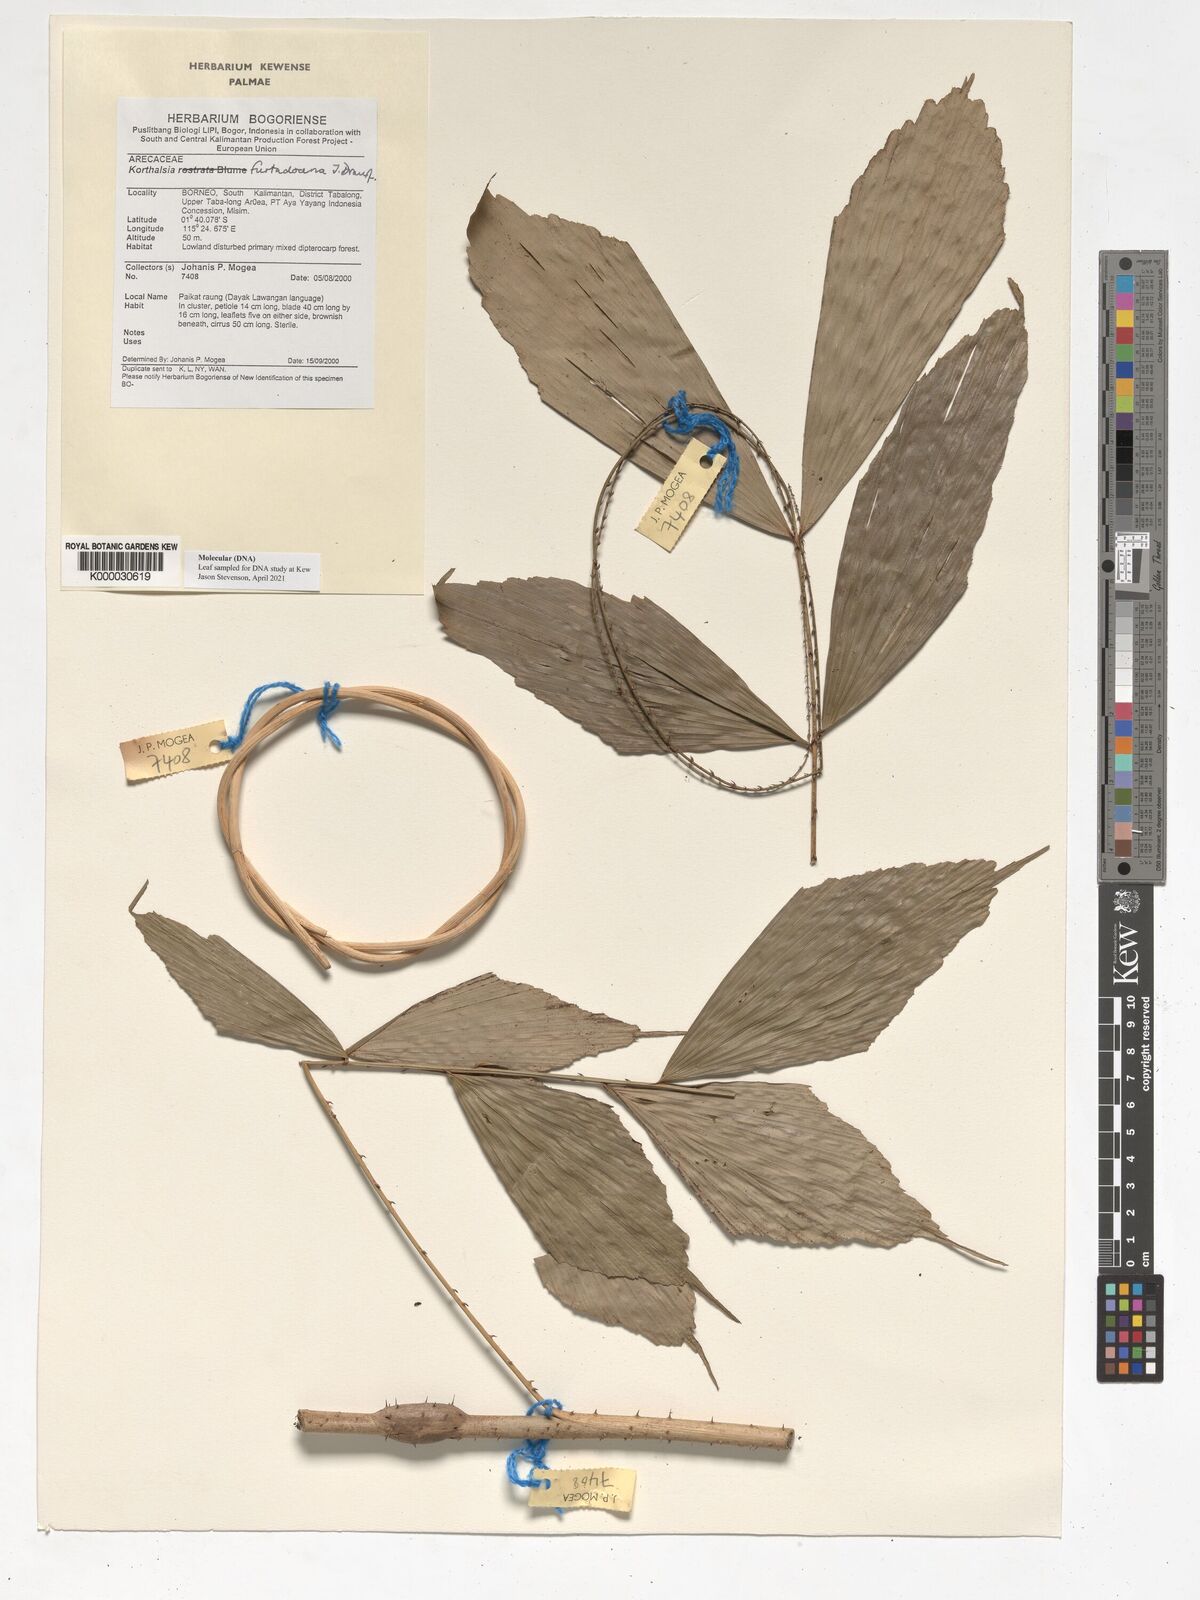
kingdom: Plantae
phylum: Tracheophyta
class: Liliopsida
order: Arecales
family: Arecaceae
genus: Korthalsia
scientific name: Korthalsia furtadoana
